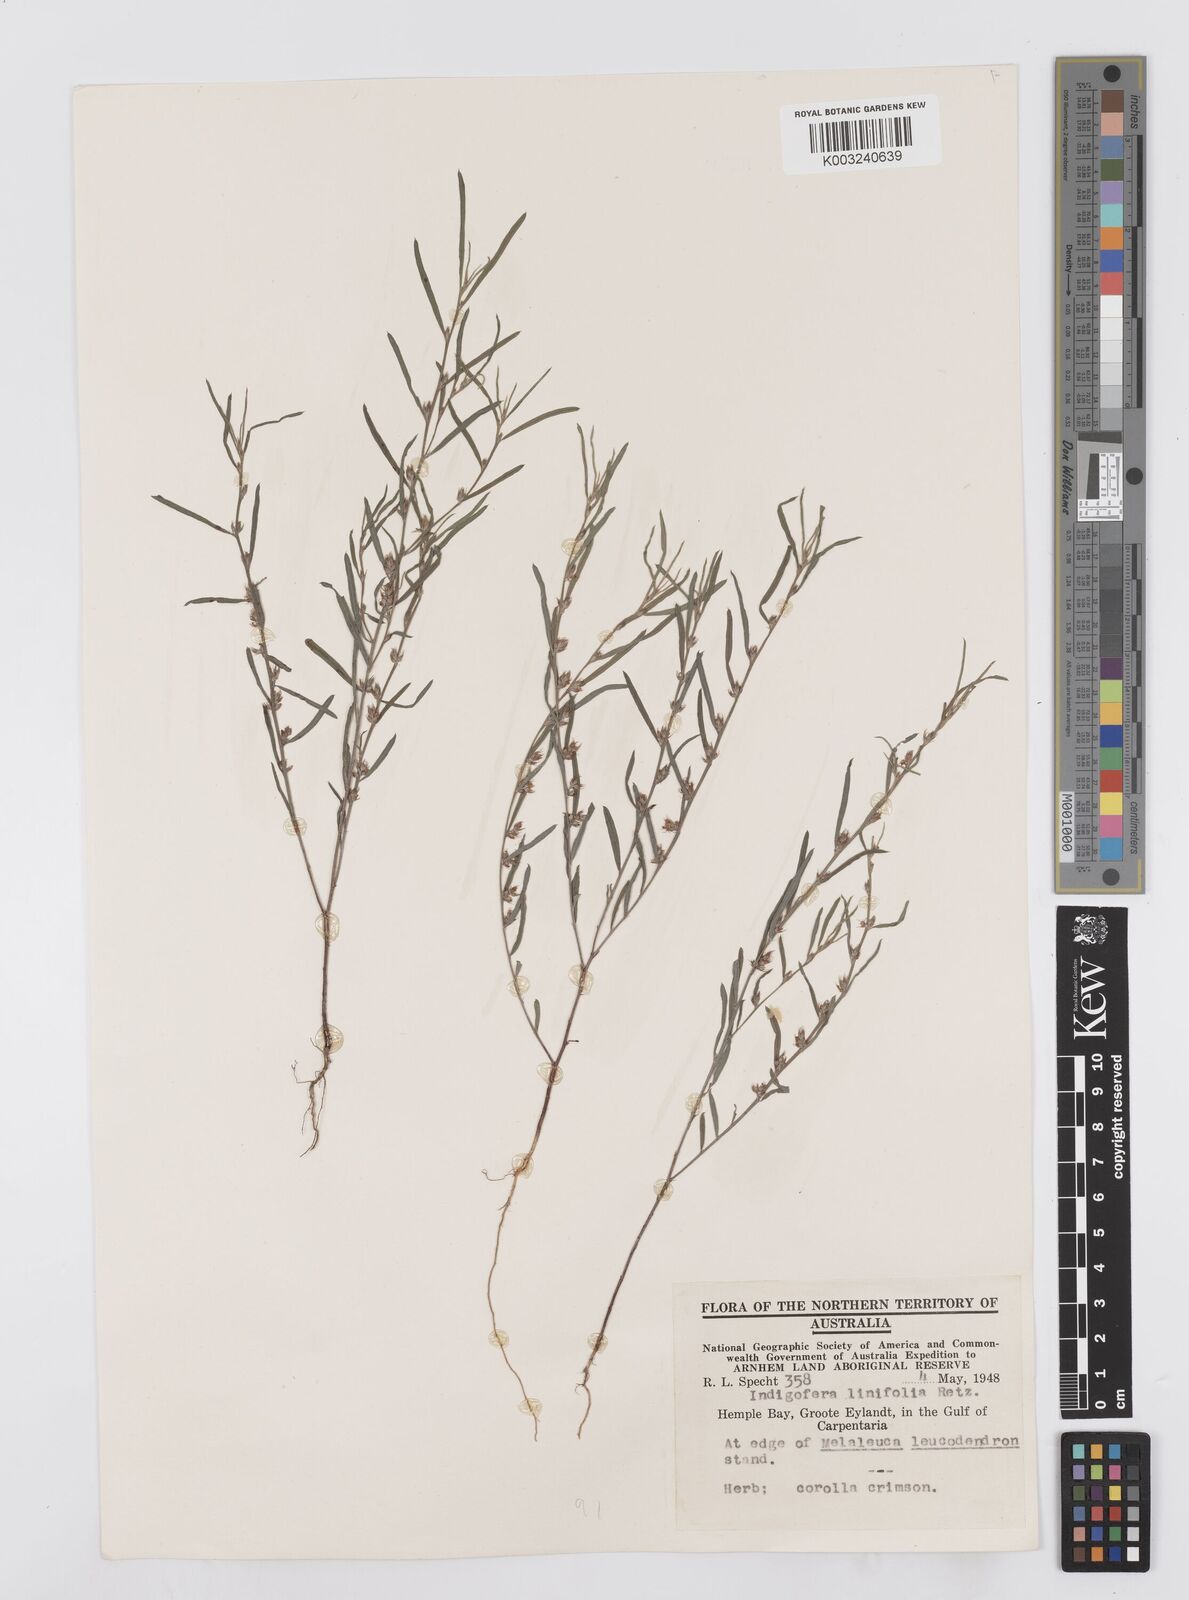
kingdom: Plantae
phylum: Tracheophyta
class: Magnoliopsida
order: Fabales
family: Fabaceae
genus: Indigofera
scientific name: Indigofera linifolia
